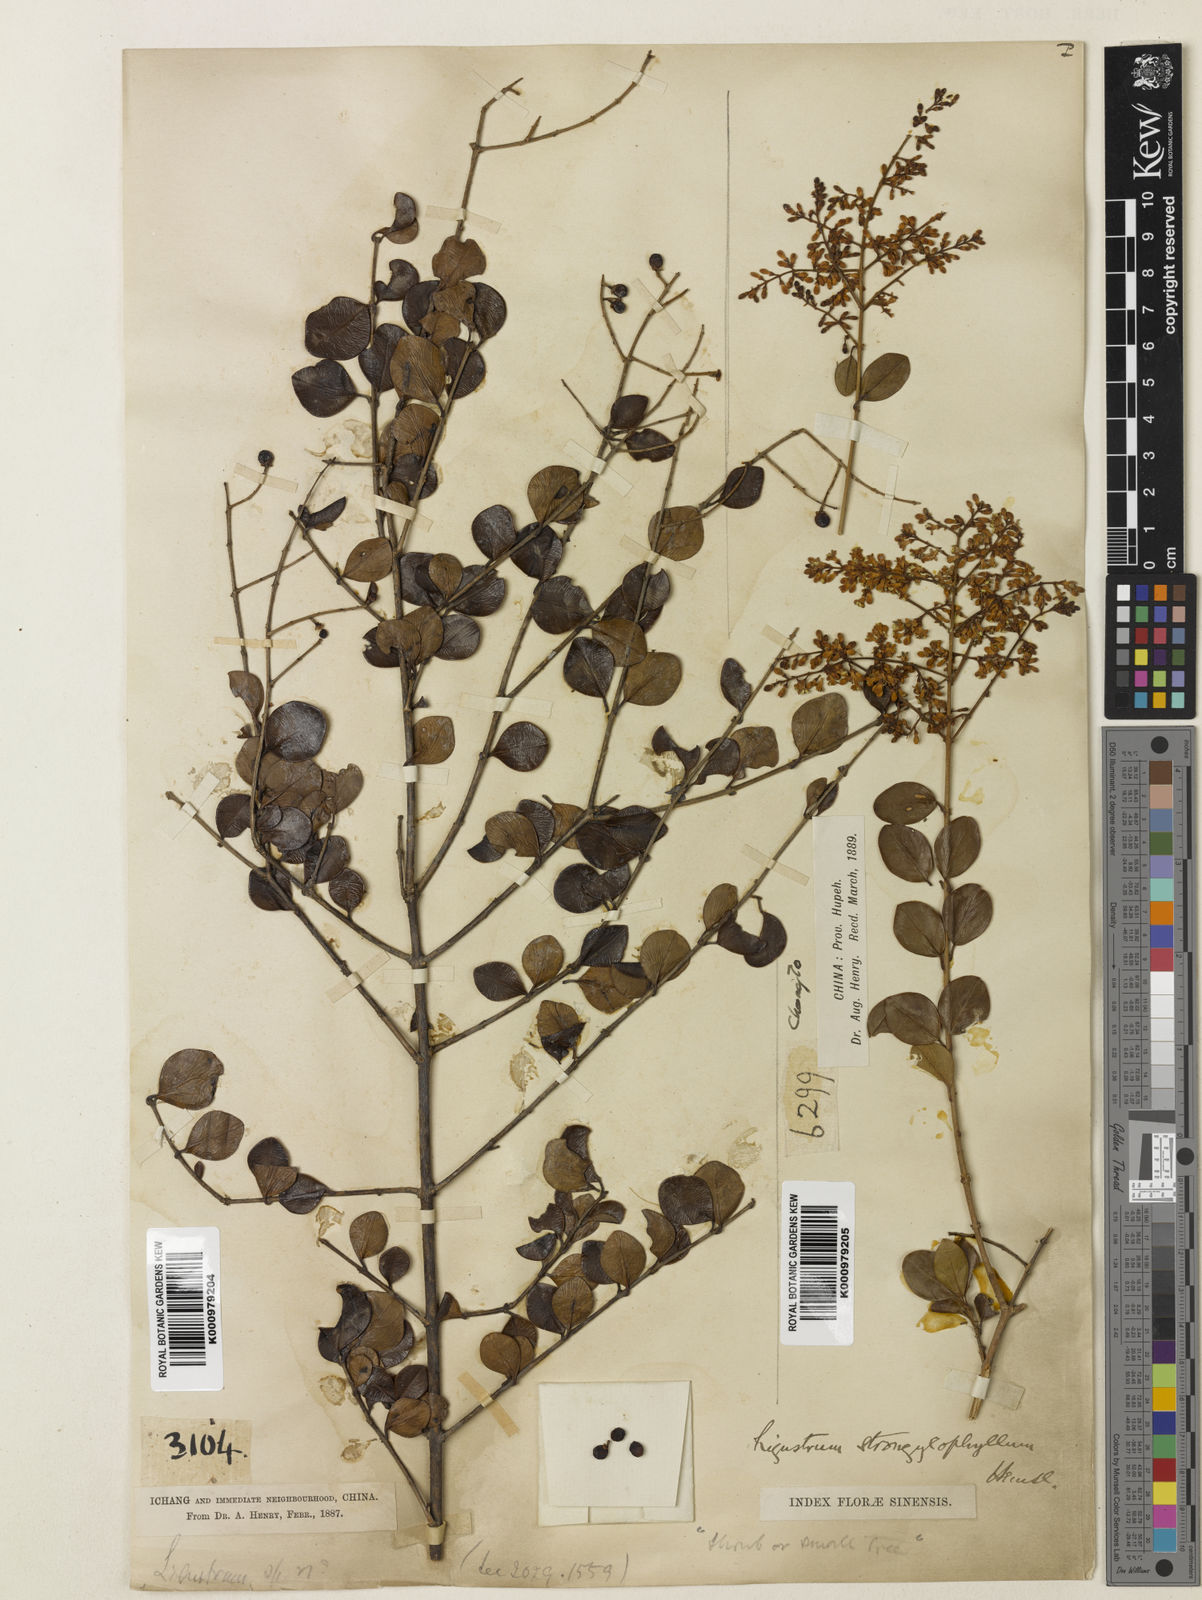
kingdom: Plantae
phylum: Tracheophyta
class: Magnoliopsida
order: Lamiales
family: Oleaceae
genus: Ligustrum
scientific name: Ligustrum strongylophyllum
